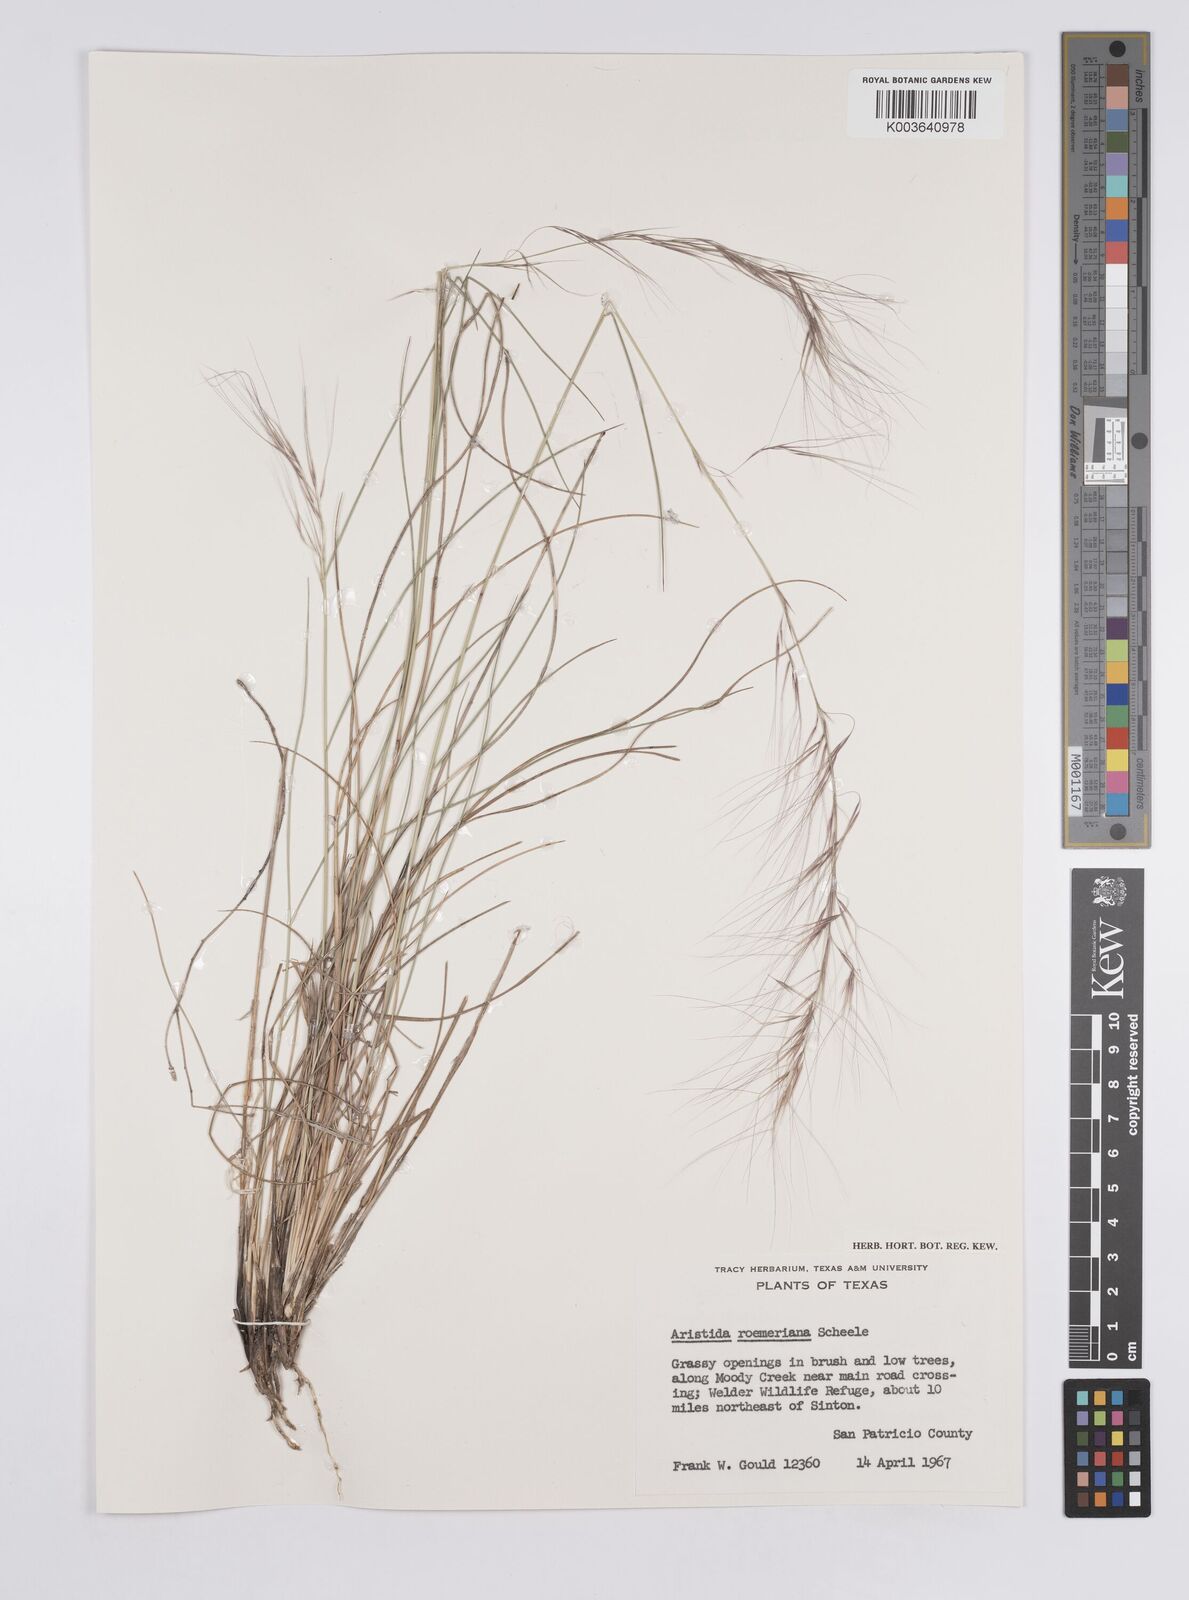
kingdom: Plantae
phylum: Tracheophyta
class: Liliopsida
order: Poales
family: Poaceae
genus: Aristida
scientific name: Aristida purpurea
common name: Purple threeawn
